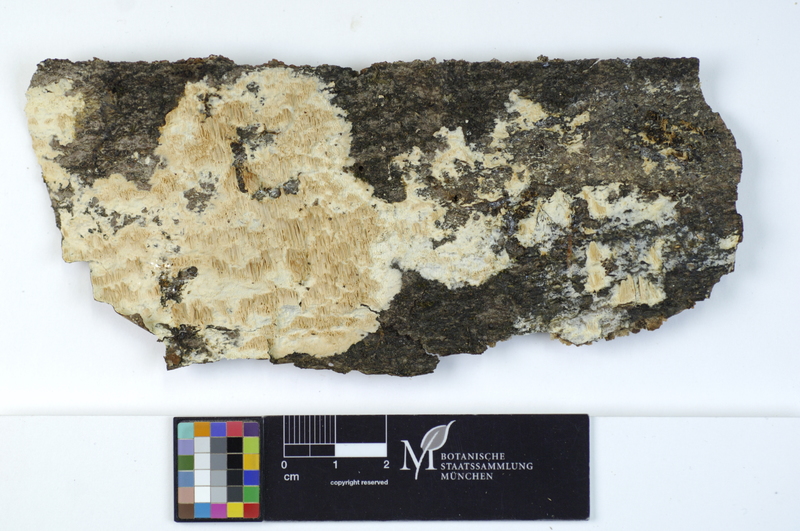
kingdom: Fungi
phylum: Basidiomycota
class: Agaricomycetes
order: Hymenochaetales
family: Oxyporaceae
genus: Oxyporus
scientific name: Oxyporus obducens
